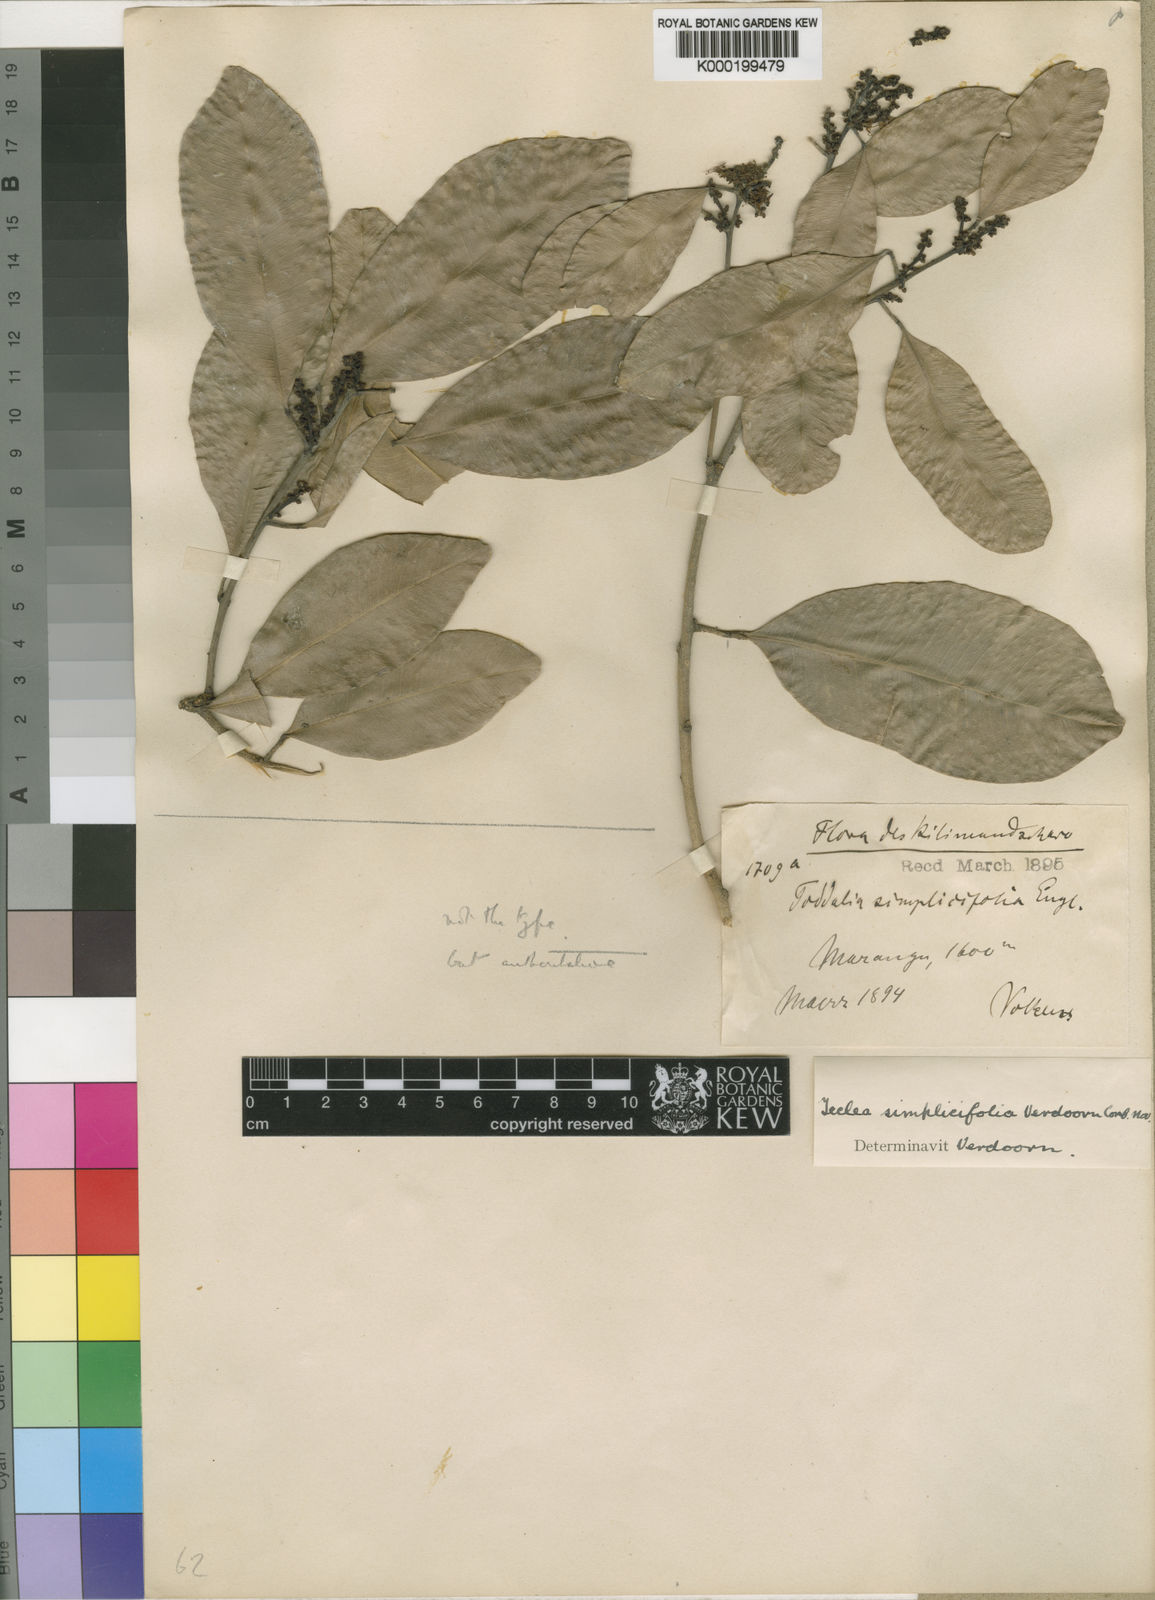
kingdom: Plantae
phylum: Tracheophyta
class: Magnoliopsida
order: Sapindales
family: Rutaceae
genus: Vepris
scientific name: Vepris simplicifolia
